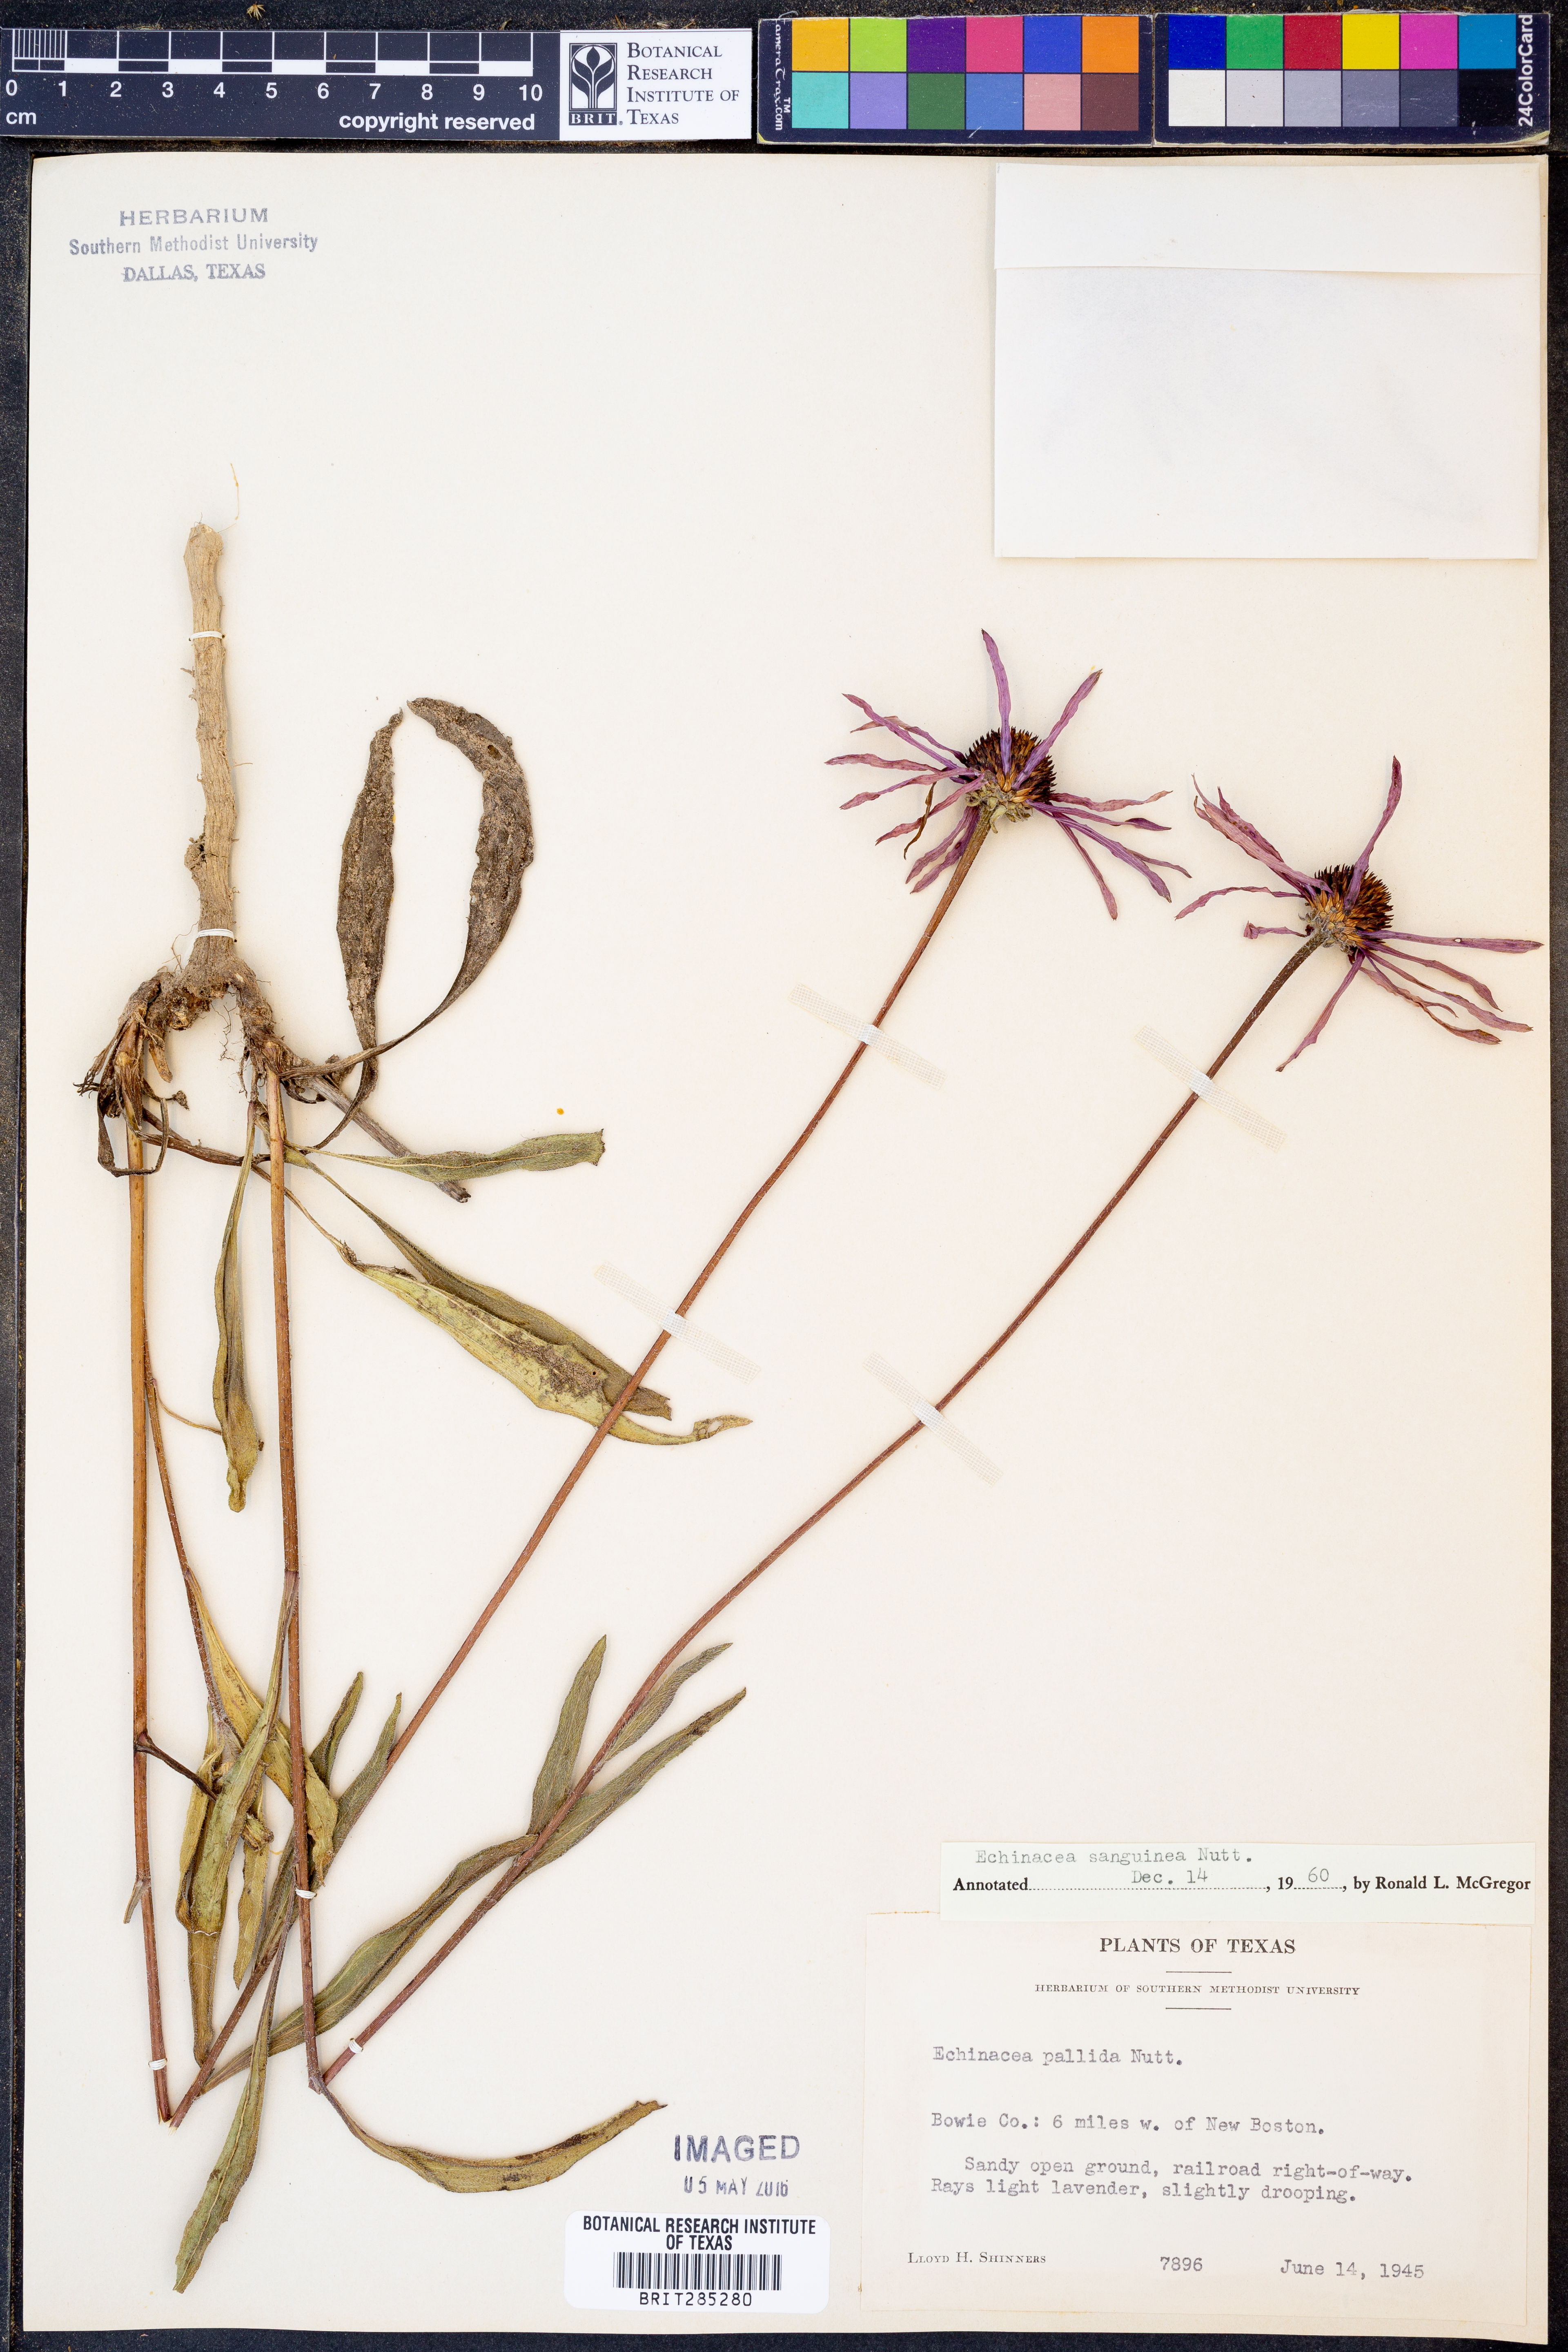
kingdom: Plantae
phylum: Tracheophyta
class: Magnoliopsida
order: Asterales
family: Asteraceae
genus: Echinacea
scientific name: Echinacea sanguinea
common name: Sanguine purple-coneflower
